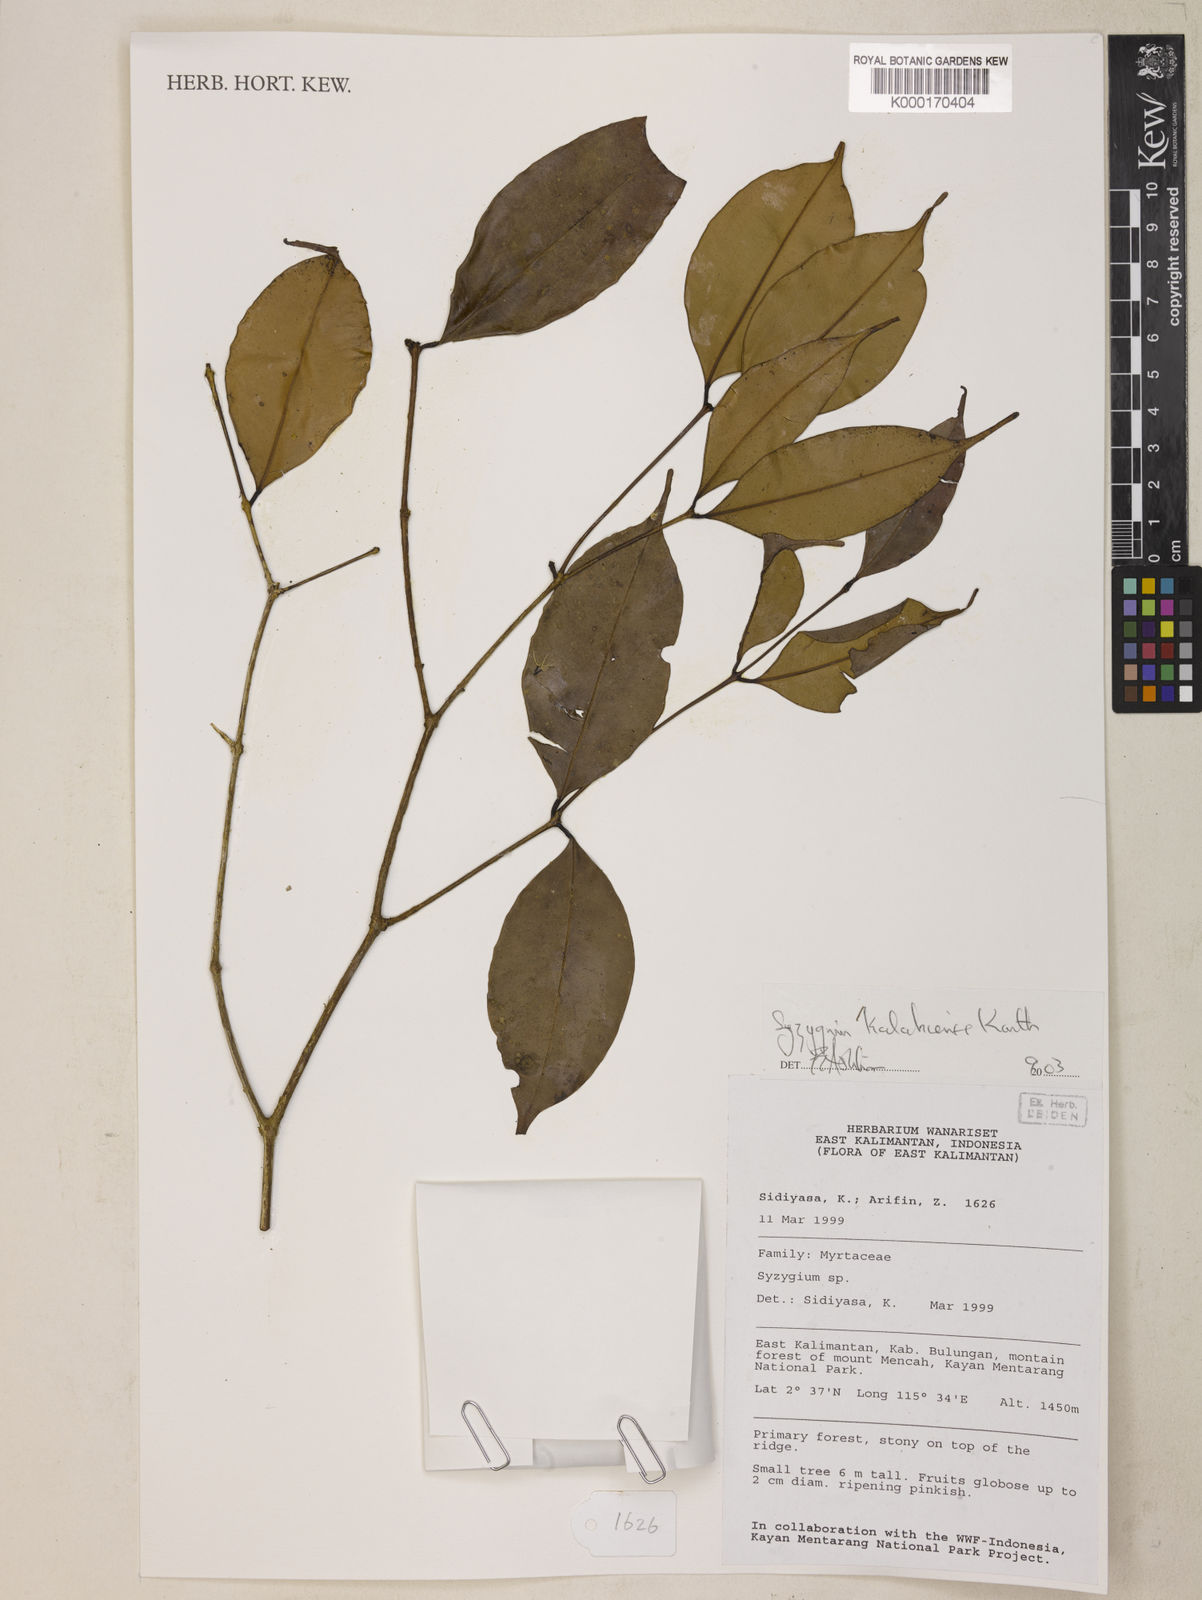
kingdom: Plantae
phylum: Tracheophyta
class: Magnoliopsida
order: Myrtales
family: Myrtaceae
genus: Syzygium
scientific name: Syzygium kalahiense
